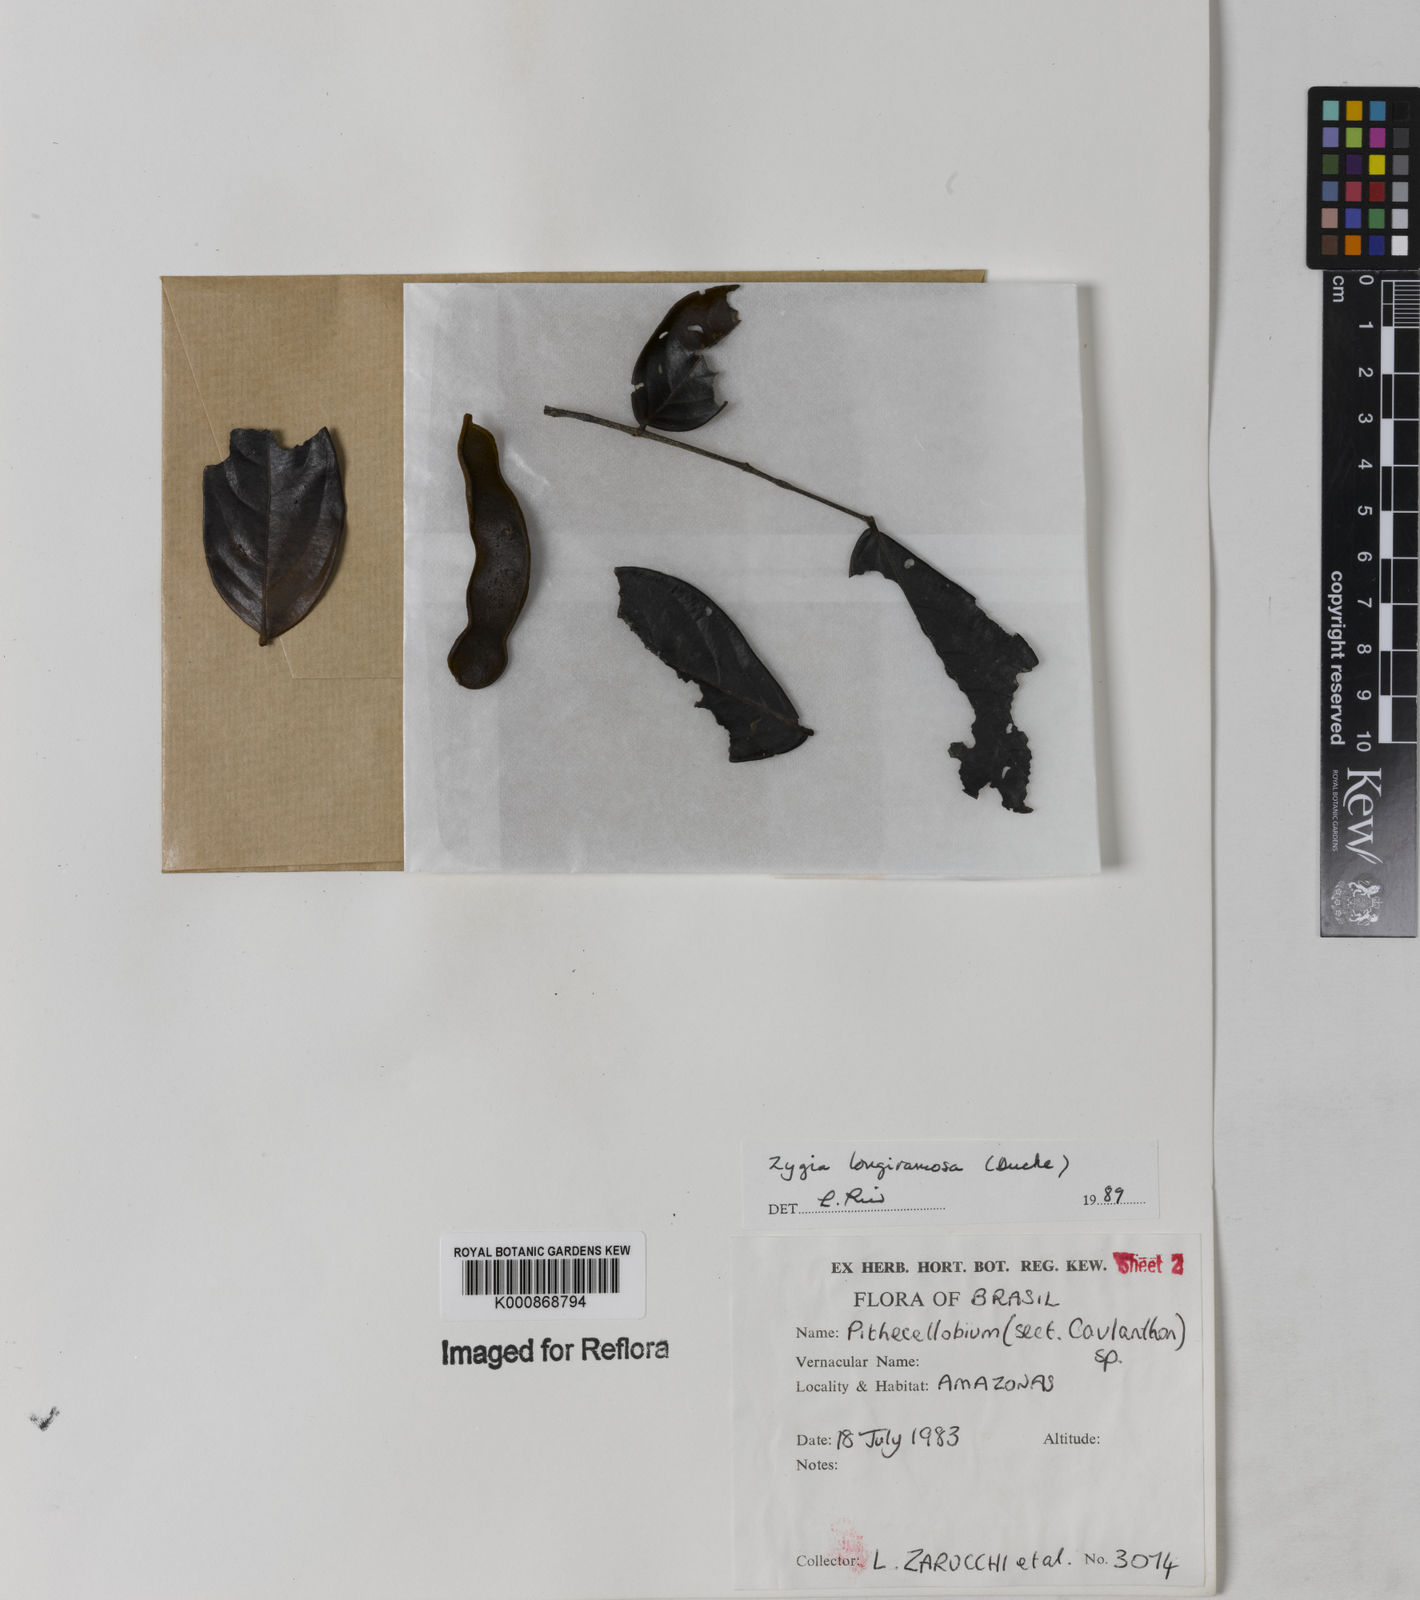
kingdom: Plantae
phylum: Tracheophyta
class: Magnoliopsida
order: Fabales
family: Fabaceae
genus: Zygia
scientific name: Zygia inaequalis
